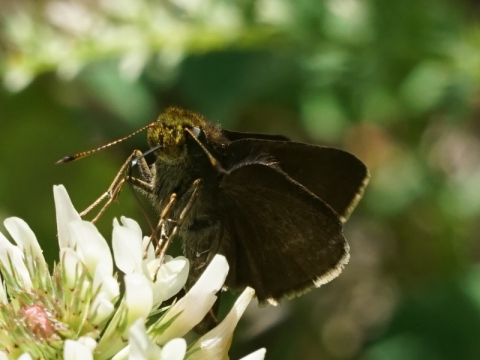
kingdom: Animalia
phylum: Arthropoda
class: Insecta
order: Lepidoptera
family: Hesperiidae
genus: Euphyes
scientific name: Euphyes vestris
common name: Dun Skipper
